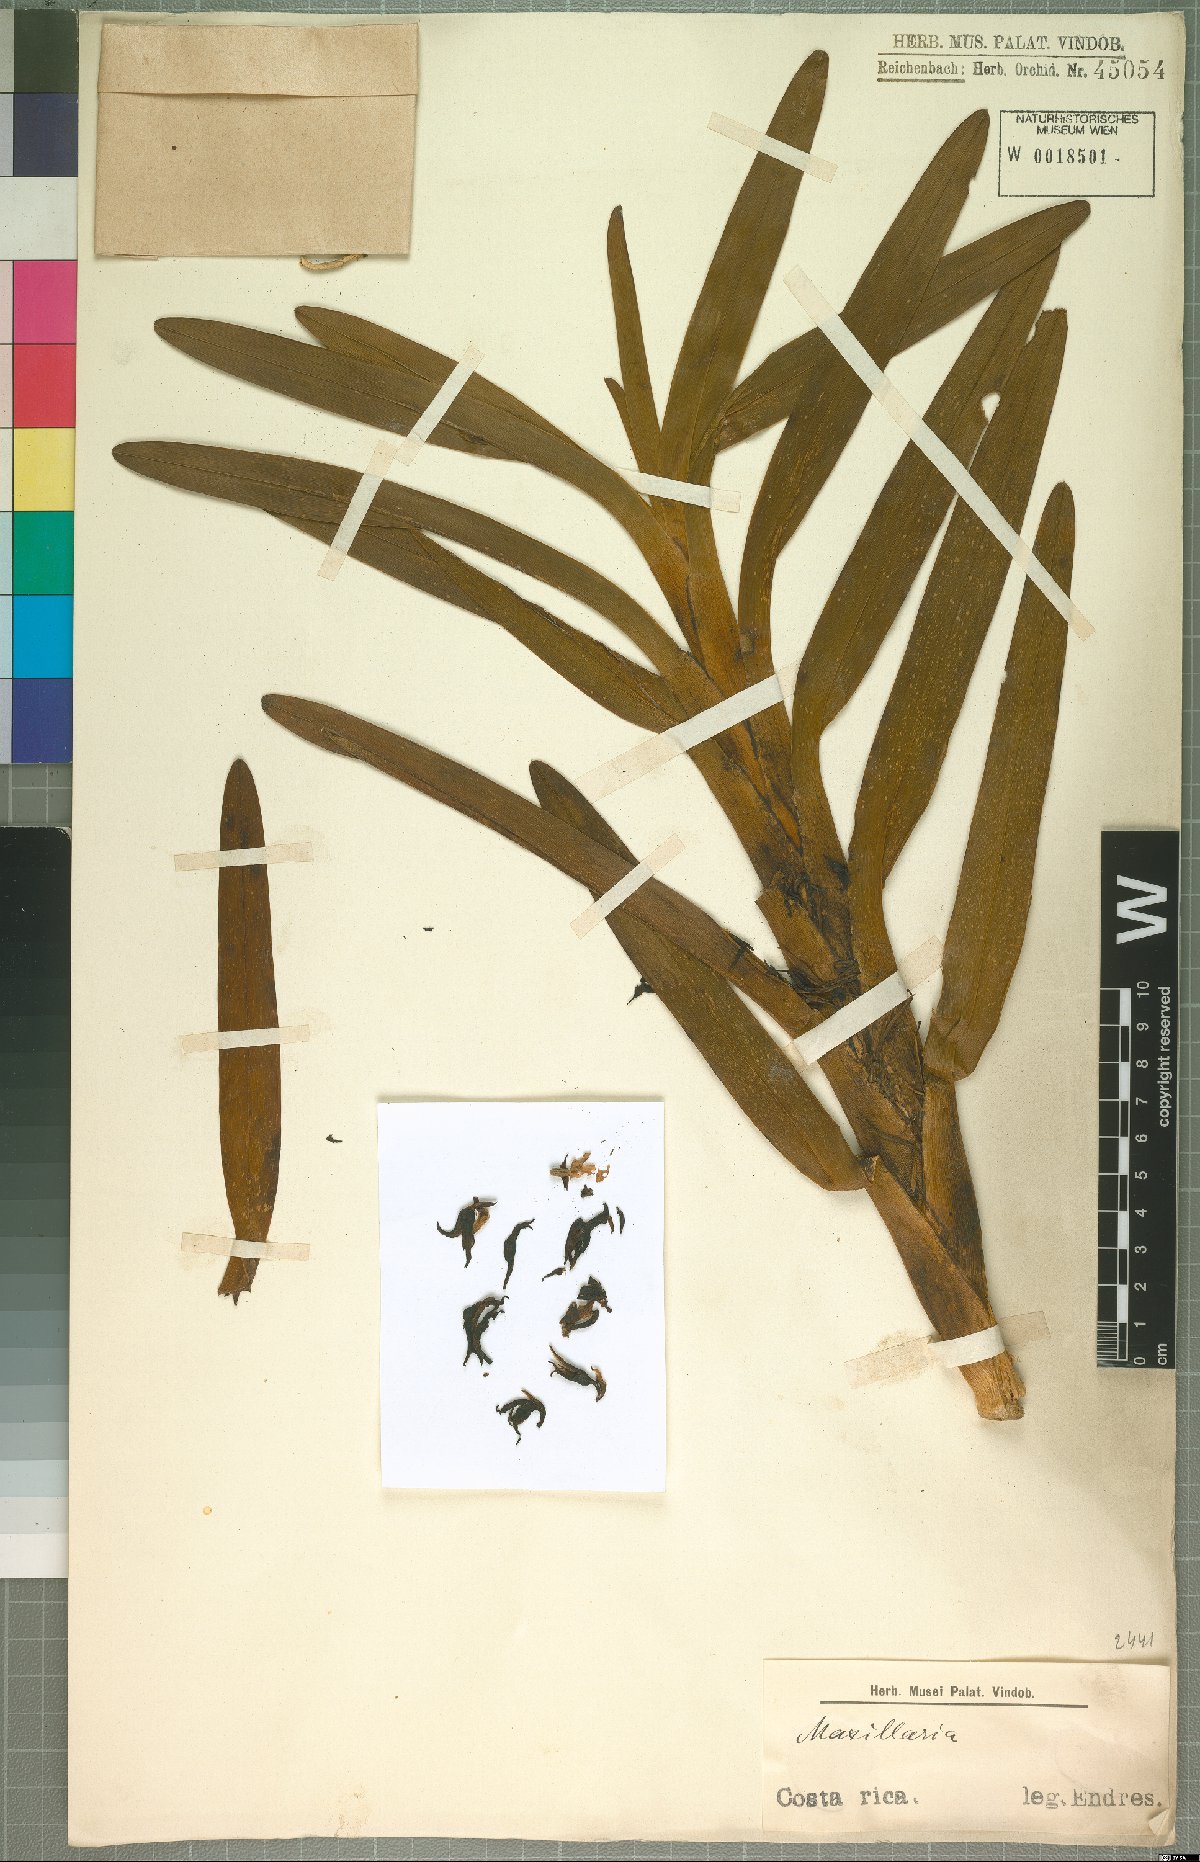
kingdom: Plantae
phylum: Tracheophyta
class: Liliopsida
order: Asparagales
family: Orchidaceae
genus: Maxillaria
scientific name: Maxillaria
